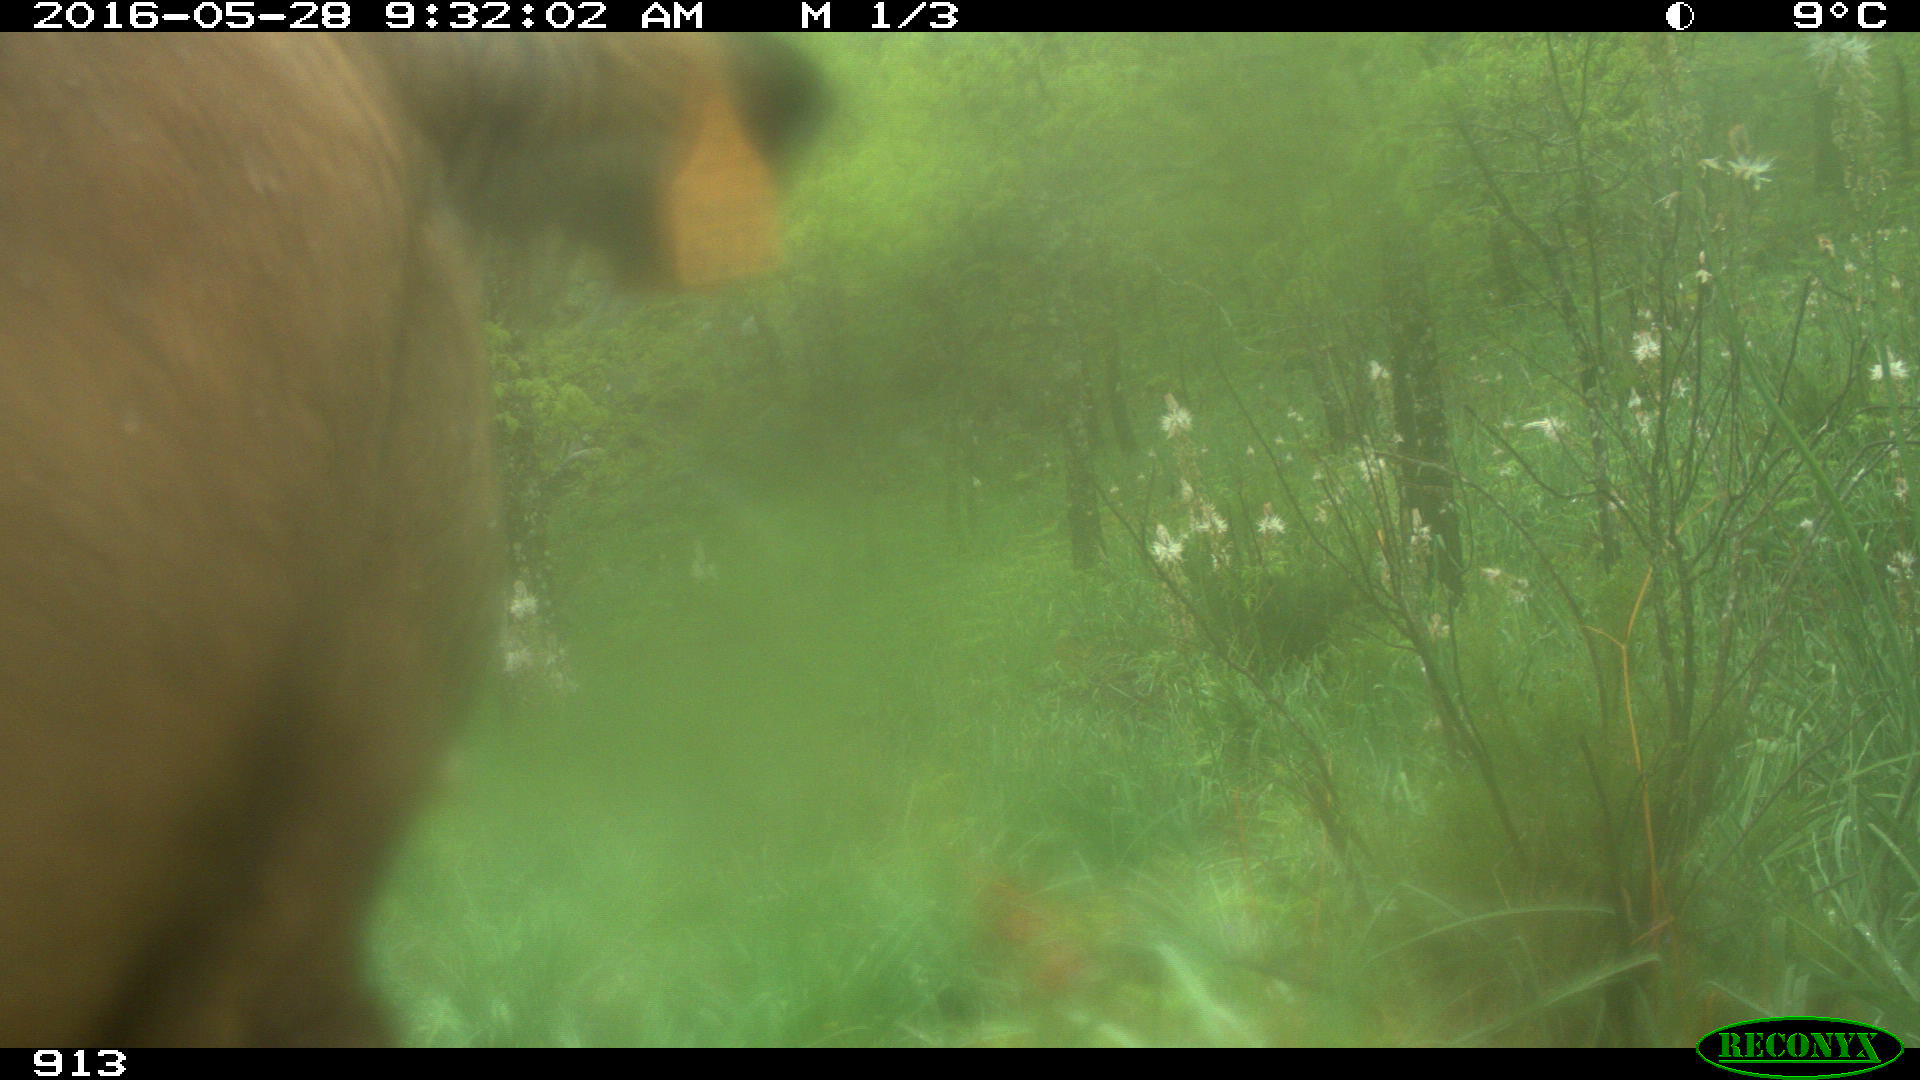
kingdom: Animalia
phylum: Chordata
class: Mammalia
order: Artiodactyla
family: Bovidae
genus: Bos
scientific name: Bos taurus
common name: Domesticated cattle
